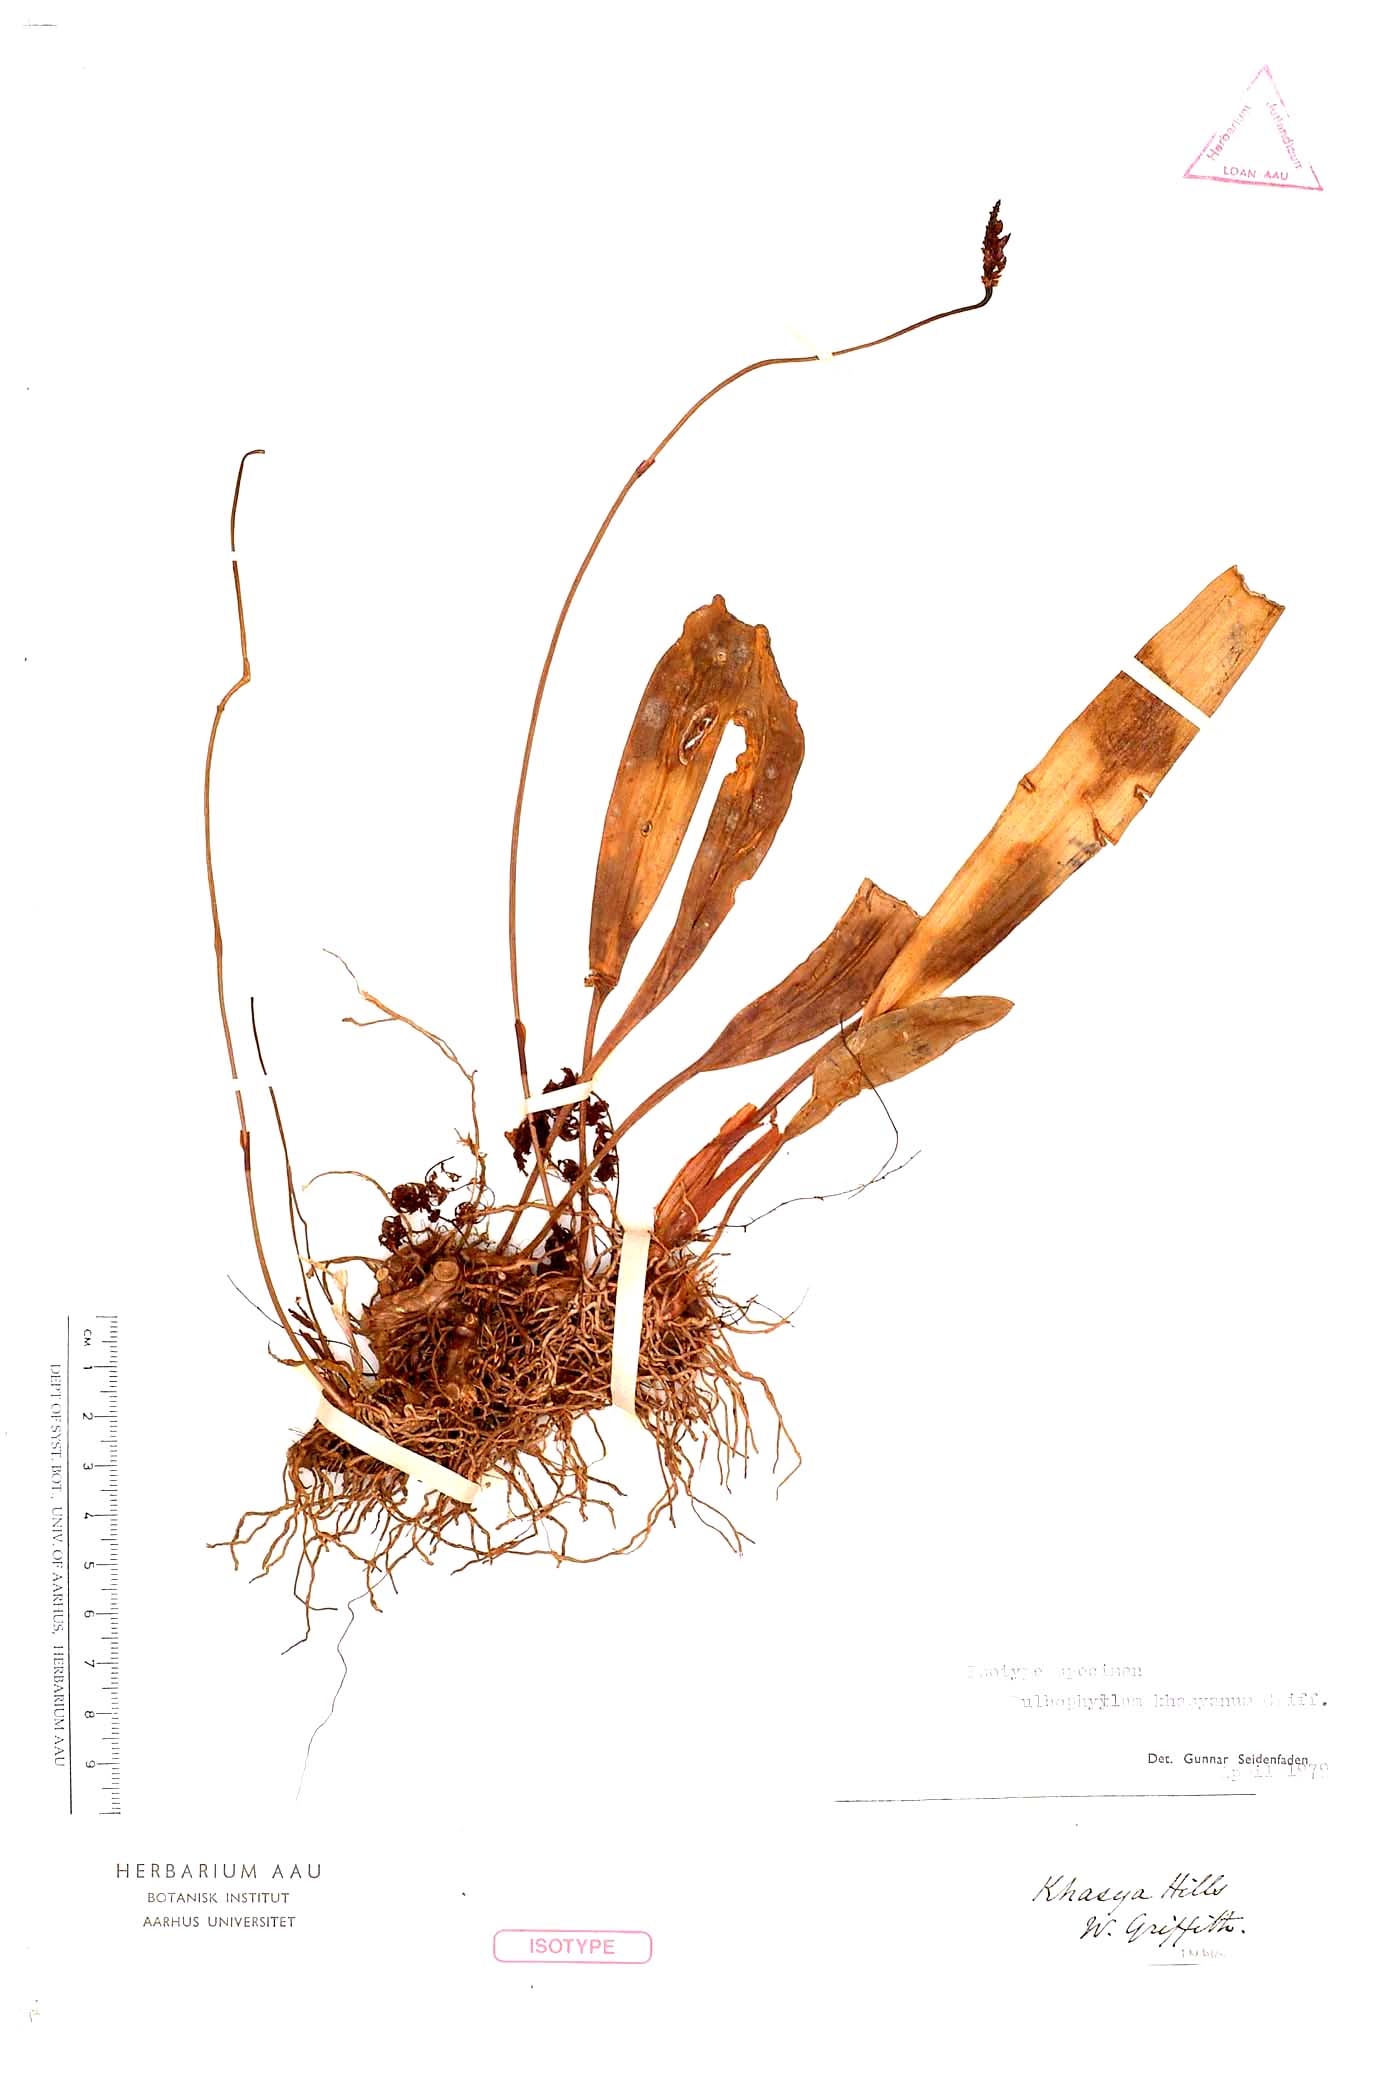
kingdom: Plantae
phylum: Tracheophyta
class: Liliopsida
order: Asparagales
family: Orchidaceae
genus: Bulbophyllum
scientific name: Bulbophyllum khasyanum
